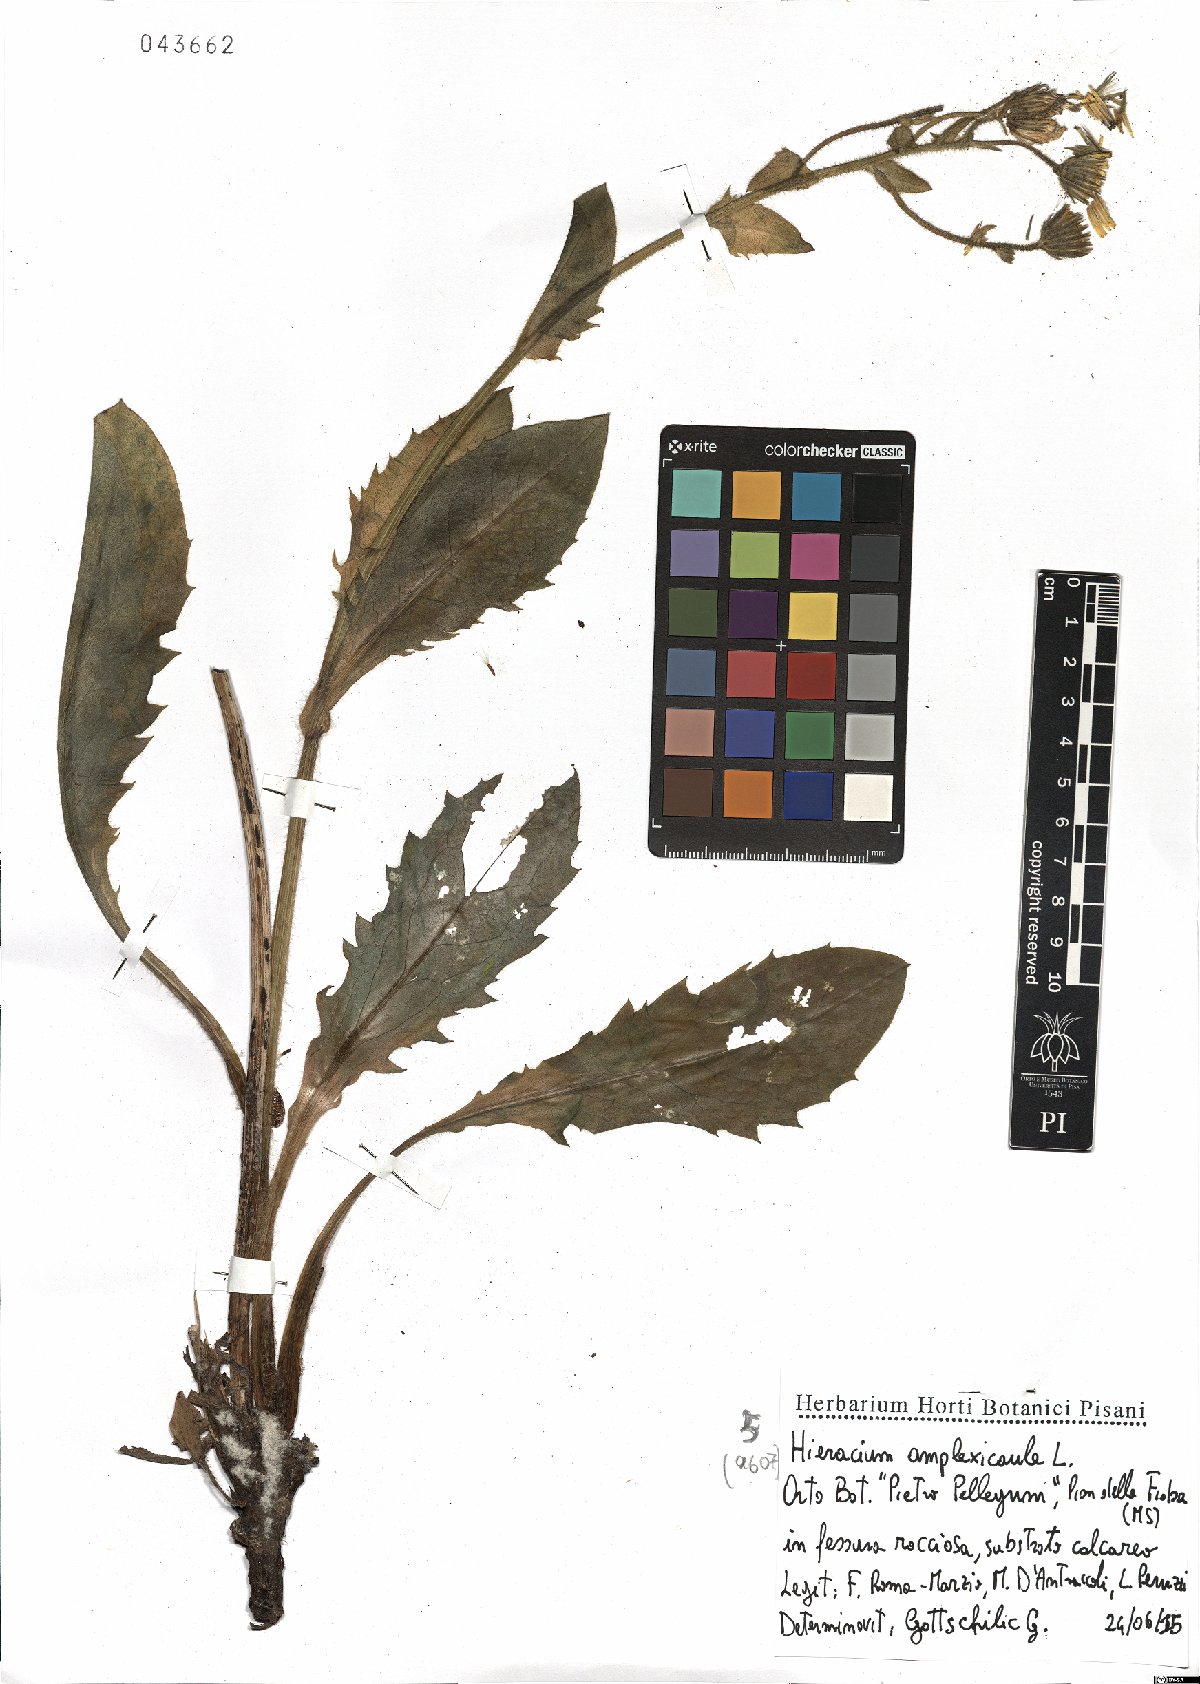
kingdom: Plantae
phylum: Tracheophyta
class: Magnoliopsida
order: Asterales
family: Asteraceae
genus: Hieracium
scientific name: Hieracium amplexicaule
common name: Sticky hawkweed
